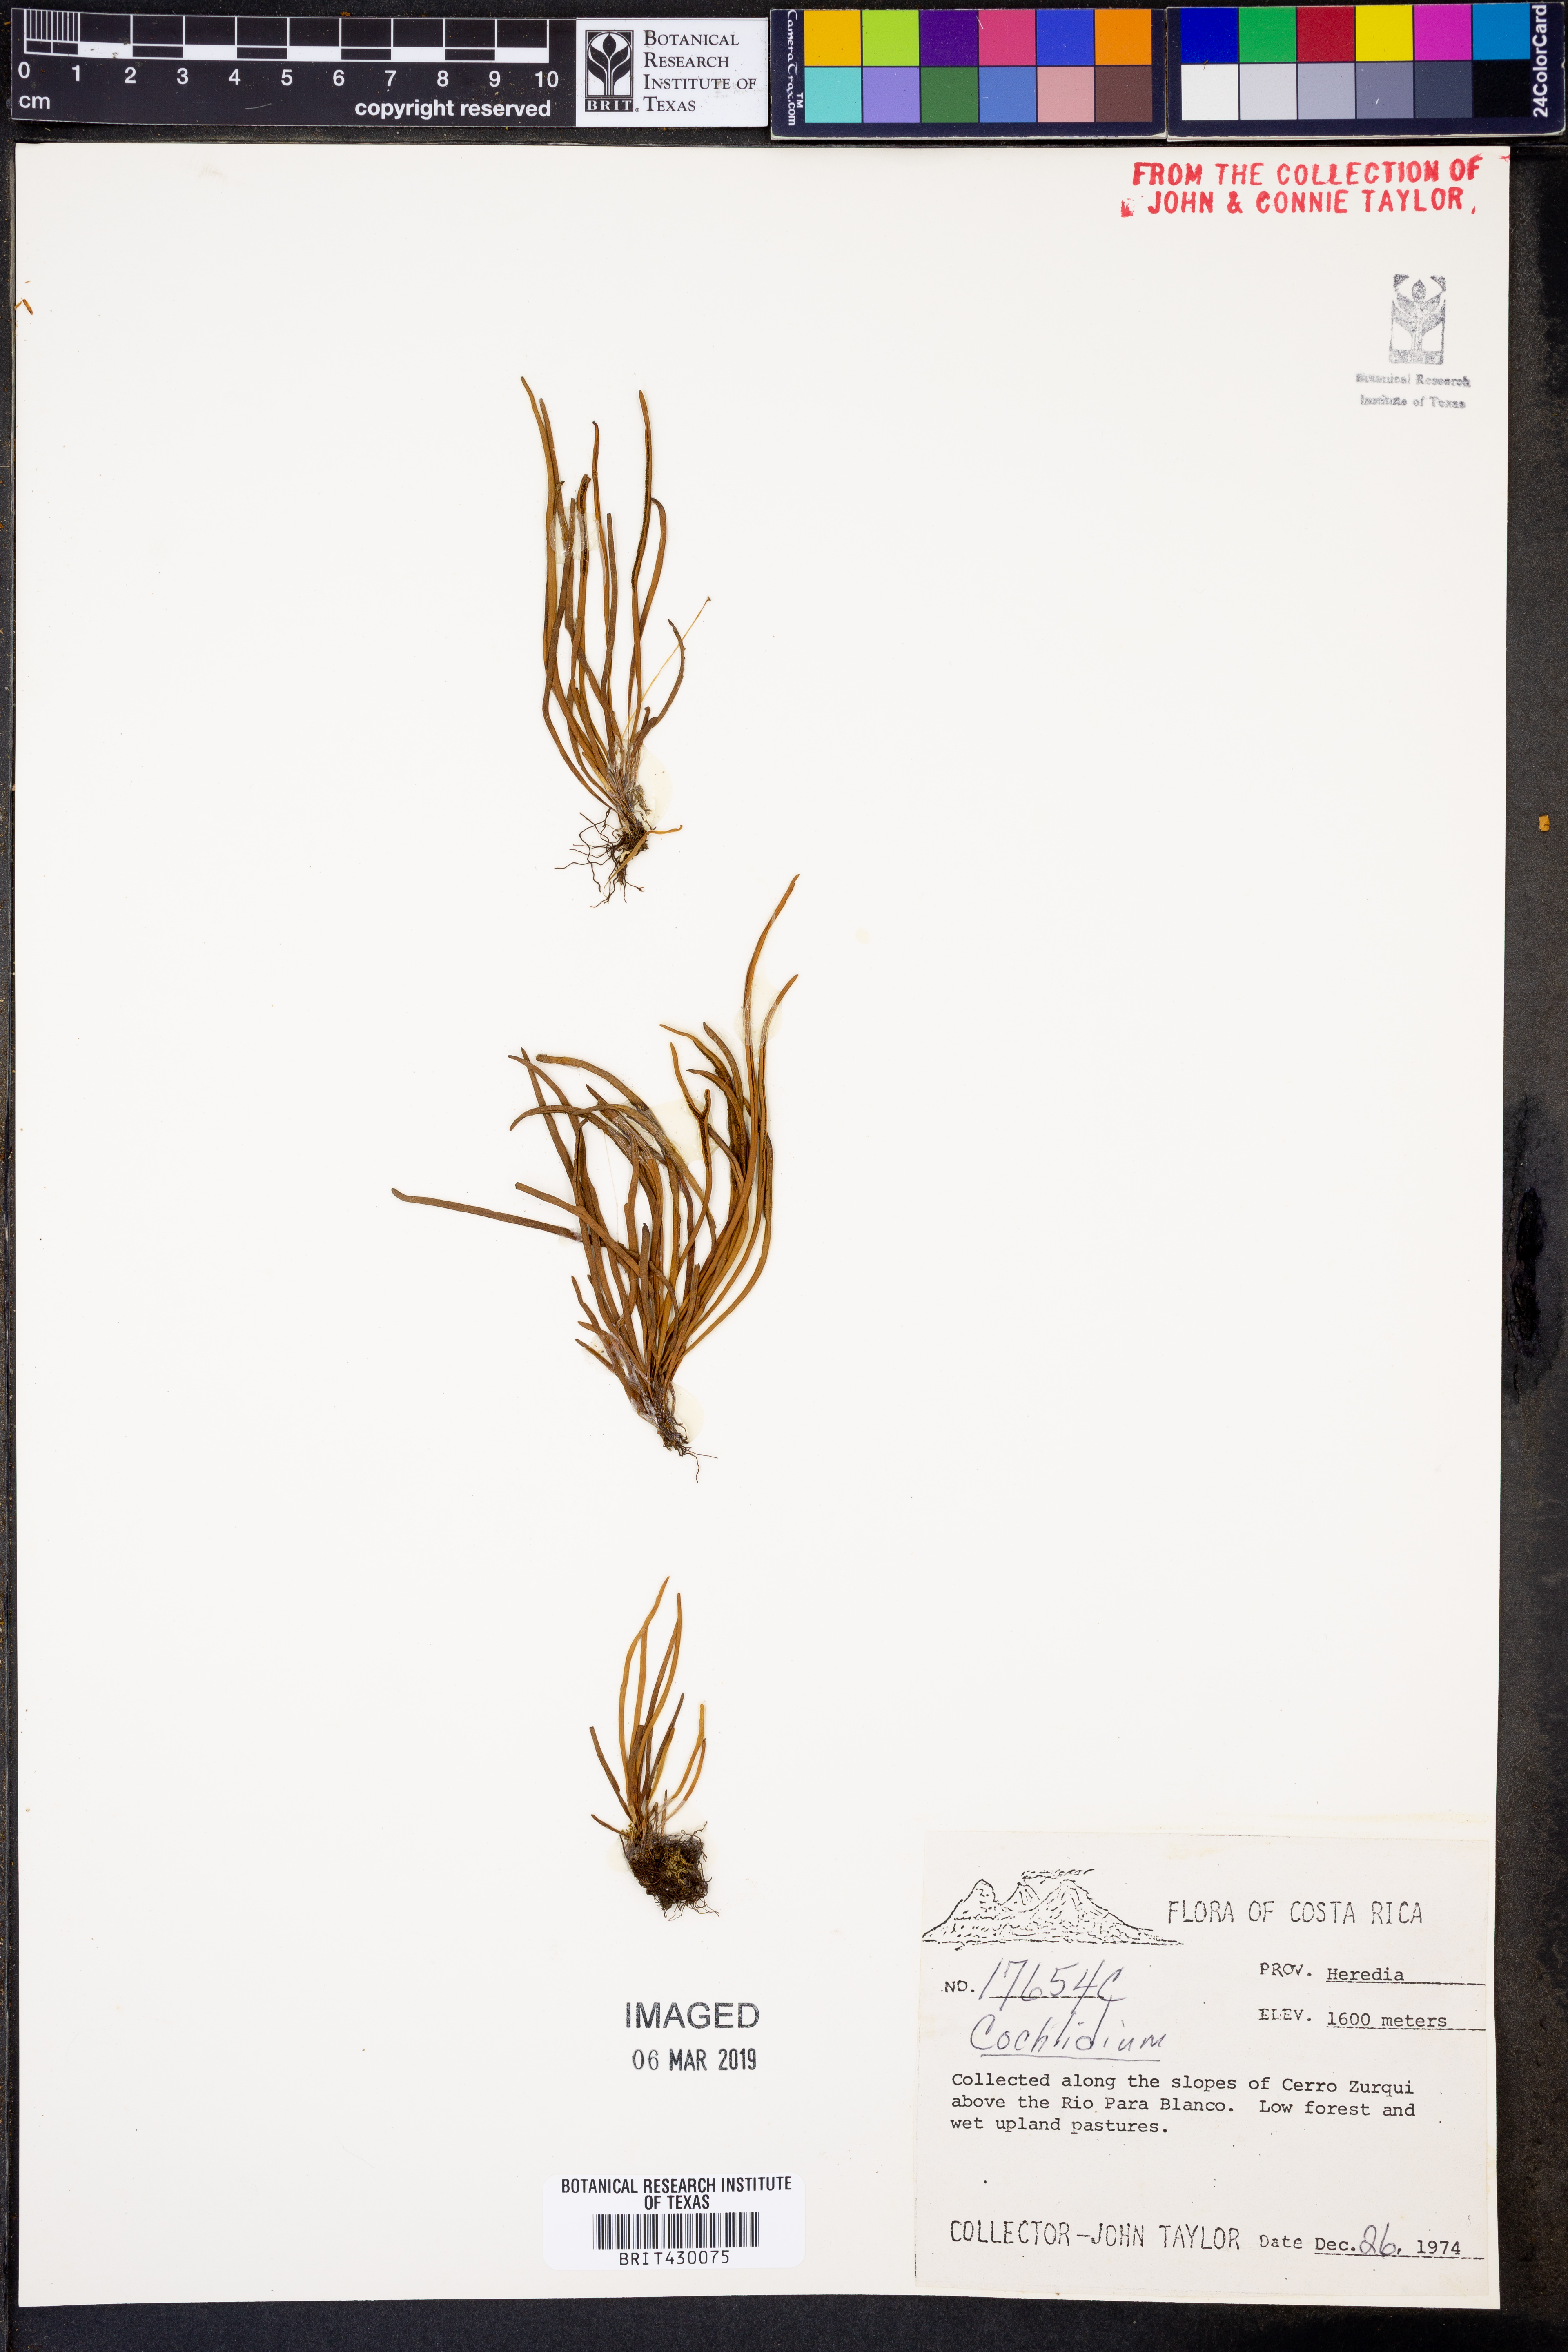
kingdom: Plantae
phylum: Tracheophyta
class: Polypodiopsida
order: Polypodiales
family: Polypodiaceae
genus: Cochlidium
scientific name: Cochlidium
